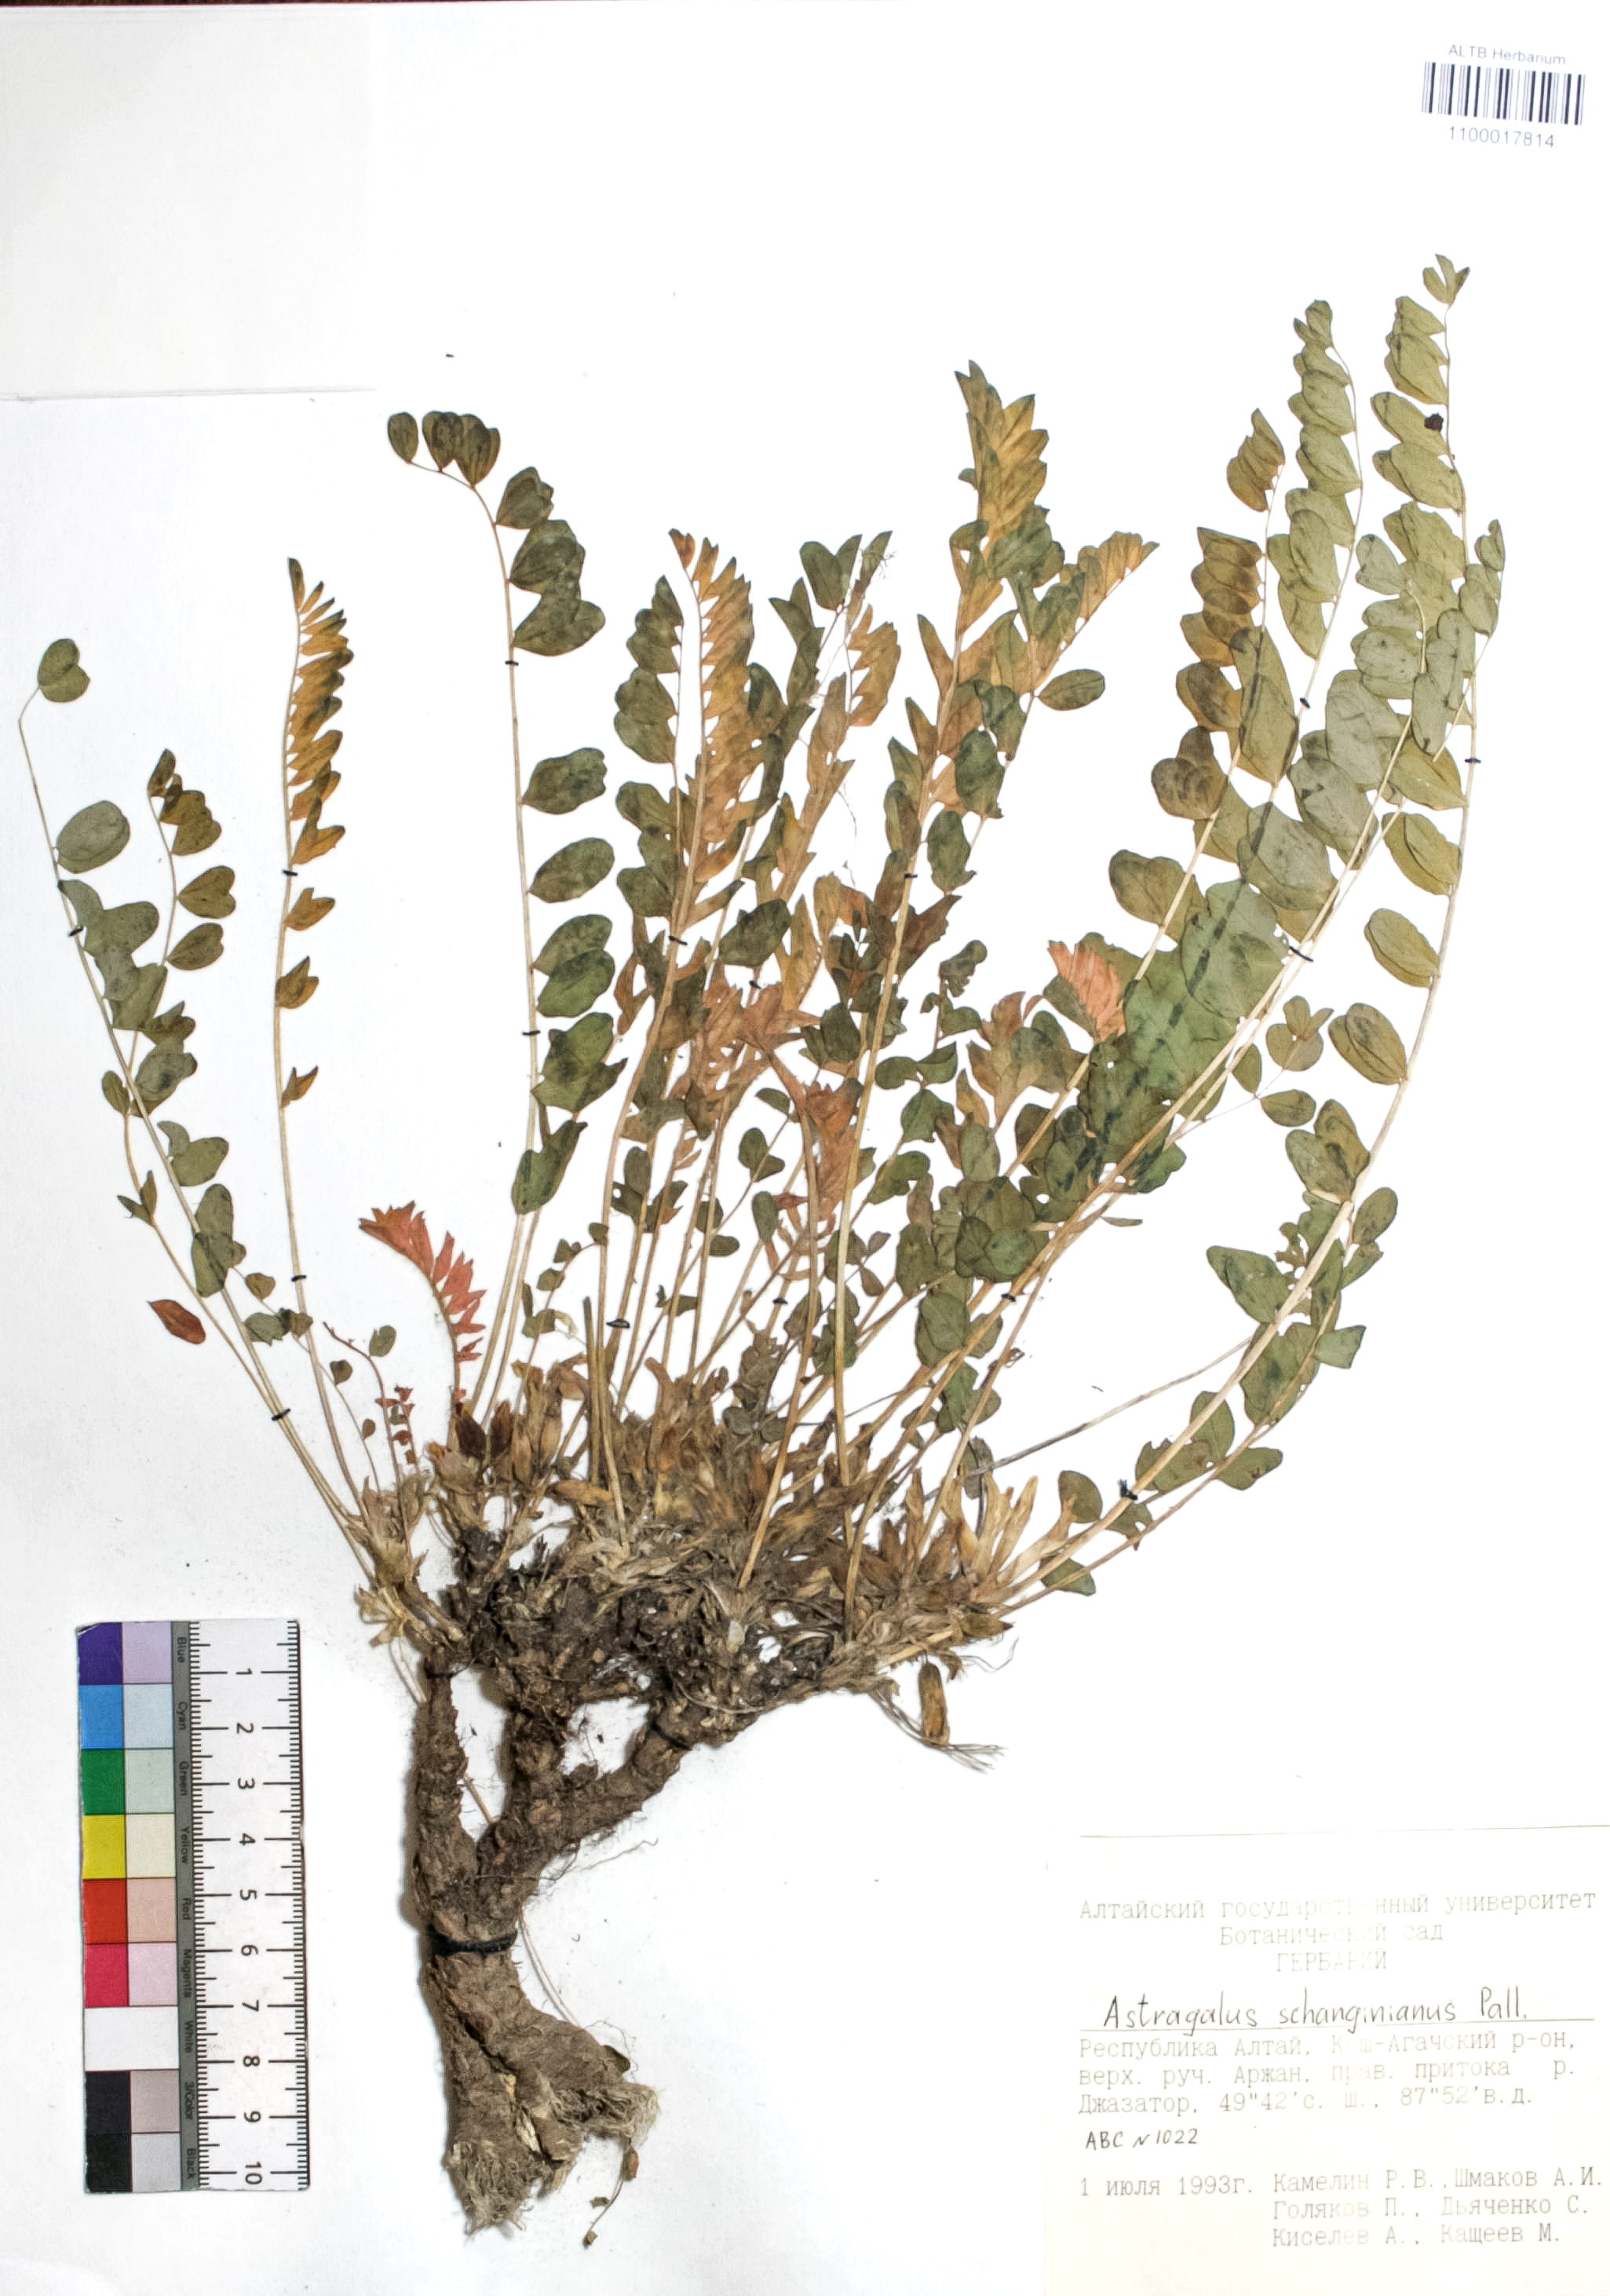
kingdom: Plantae
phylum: Tracheophyta
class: Magnoliopsida
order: Fabales
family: Fabaceae
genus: Astragalus
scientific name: Astragalus schanginianus
